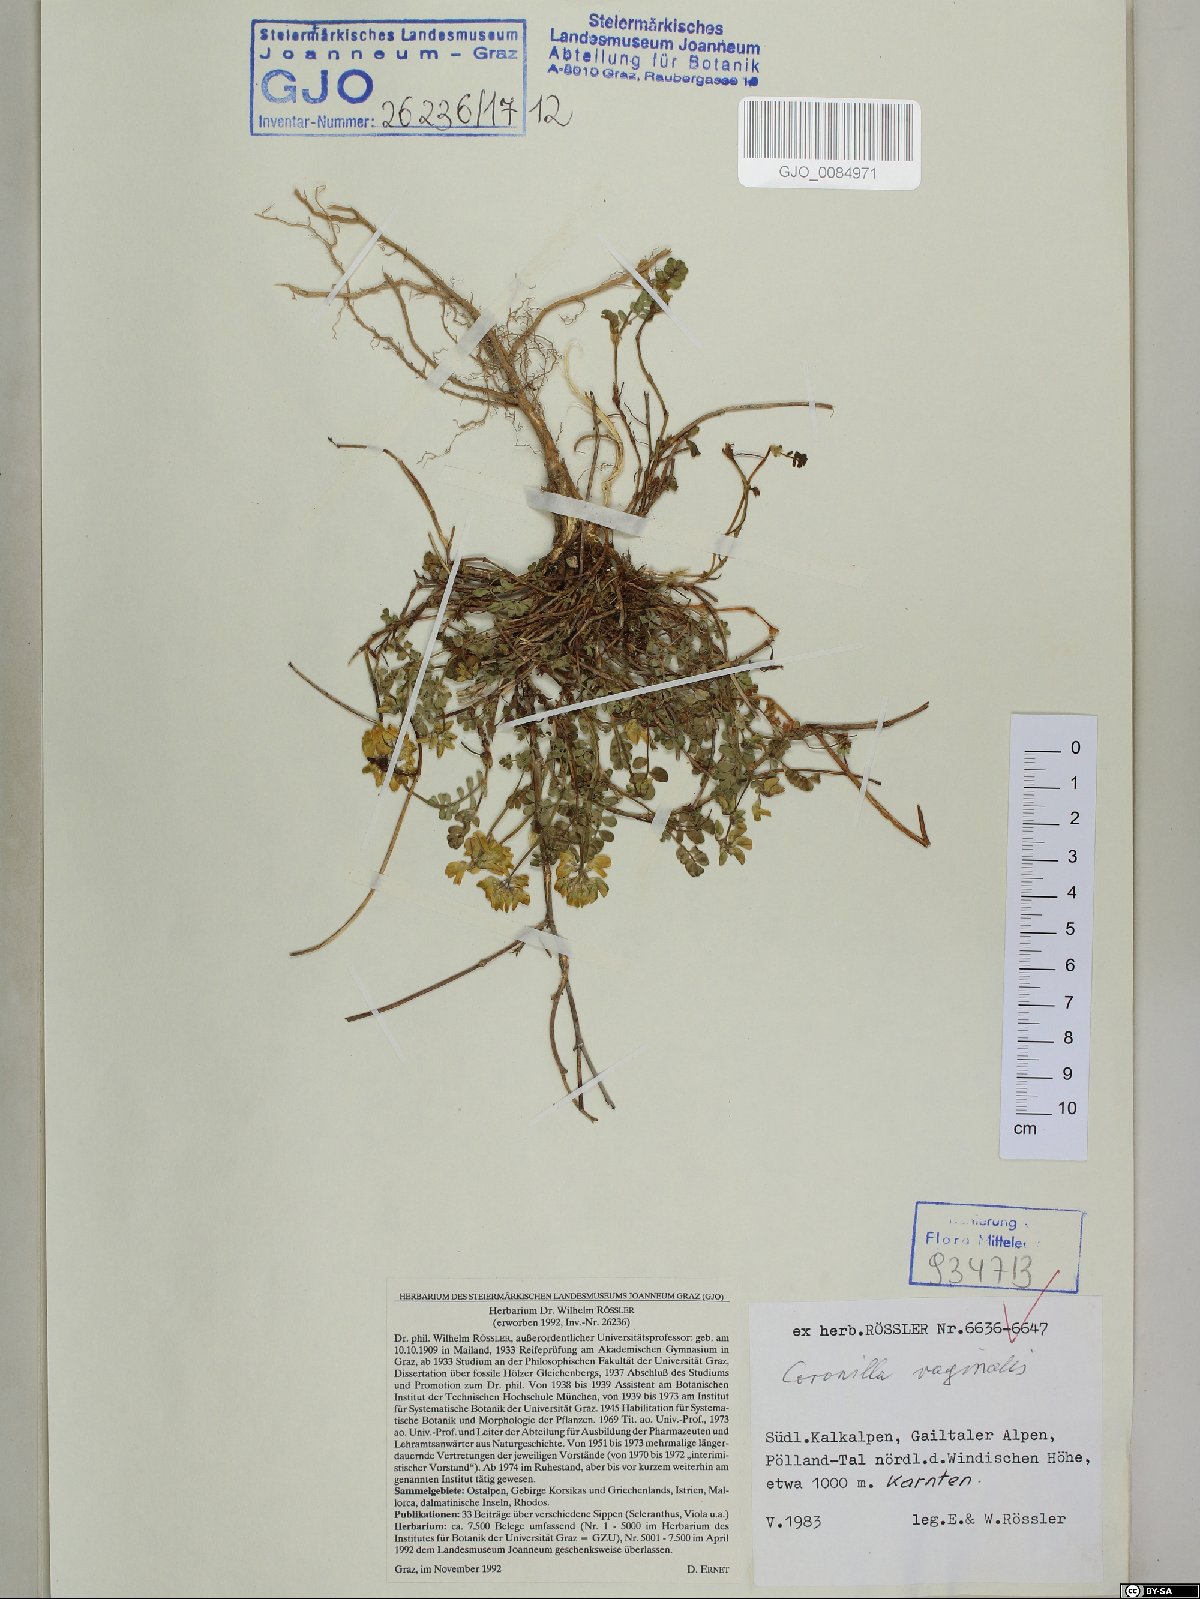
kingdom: Plantae
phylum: Tracheophyta
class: Magnoliopsida
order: Fabales
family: Fabaceae
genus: Coronilla
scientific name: Coronilla vaginalis
